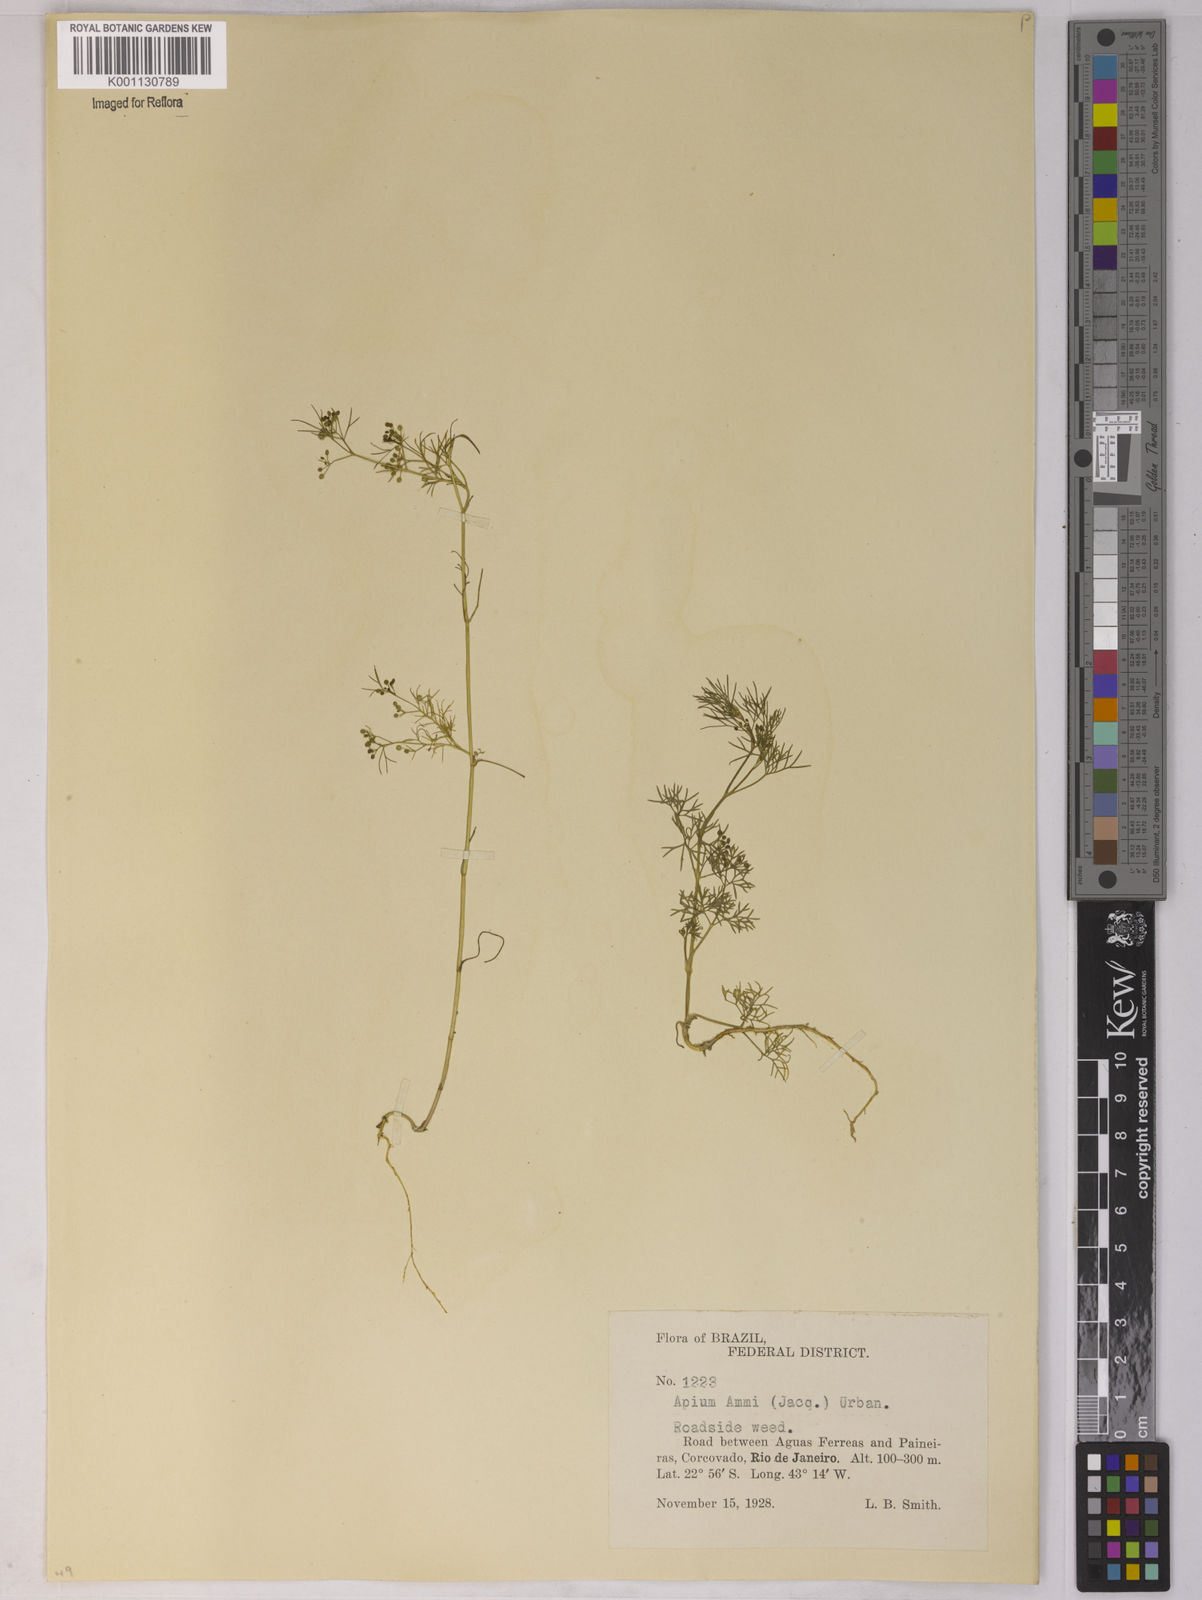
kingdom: Plantae
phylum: Tracheophyta
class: Magnoliopsida
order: Apiales
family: Apiaceae
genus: Apium
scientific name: Apium
